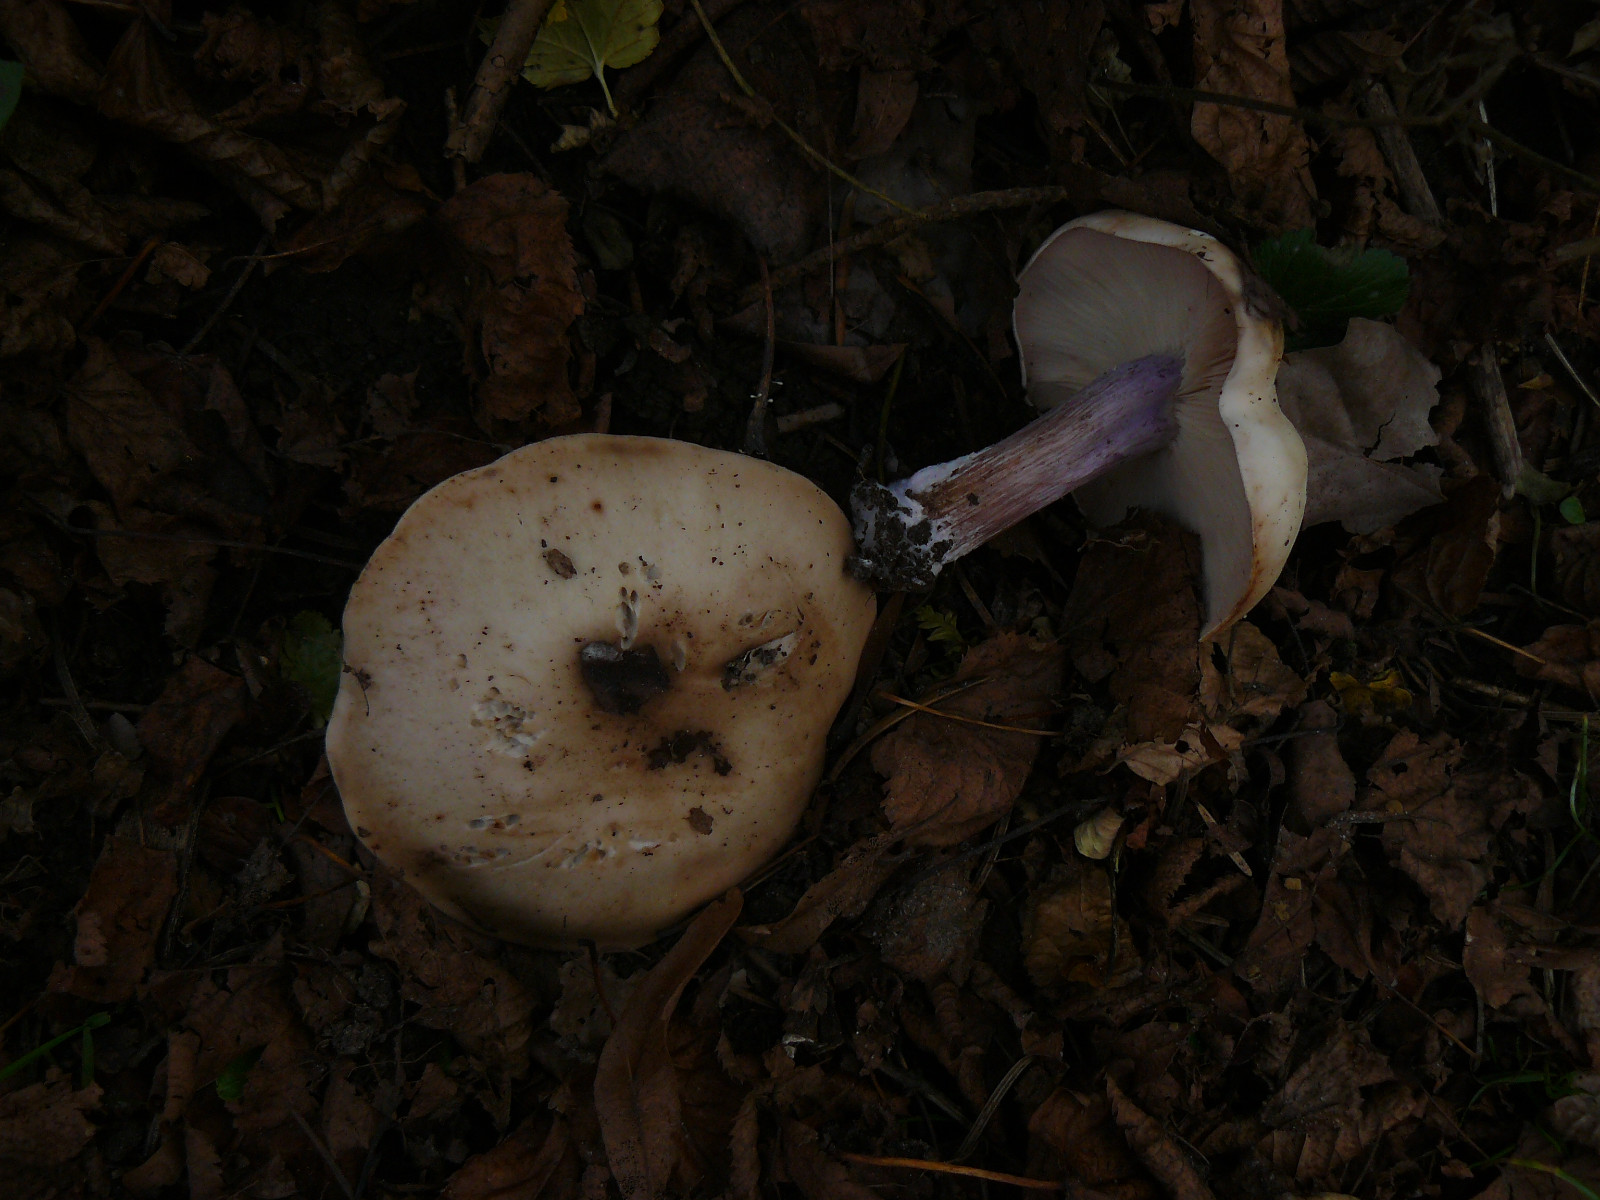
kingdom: Fungi
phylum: Basidiomycota
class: Agaricomycetes
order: Agaricales
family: Tricholomataceae
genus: Lepista
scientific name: Lepista personata
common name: bleg hekseringshat
